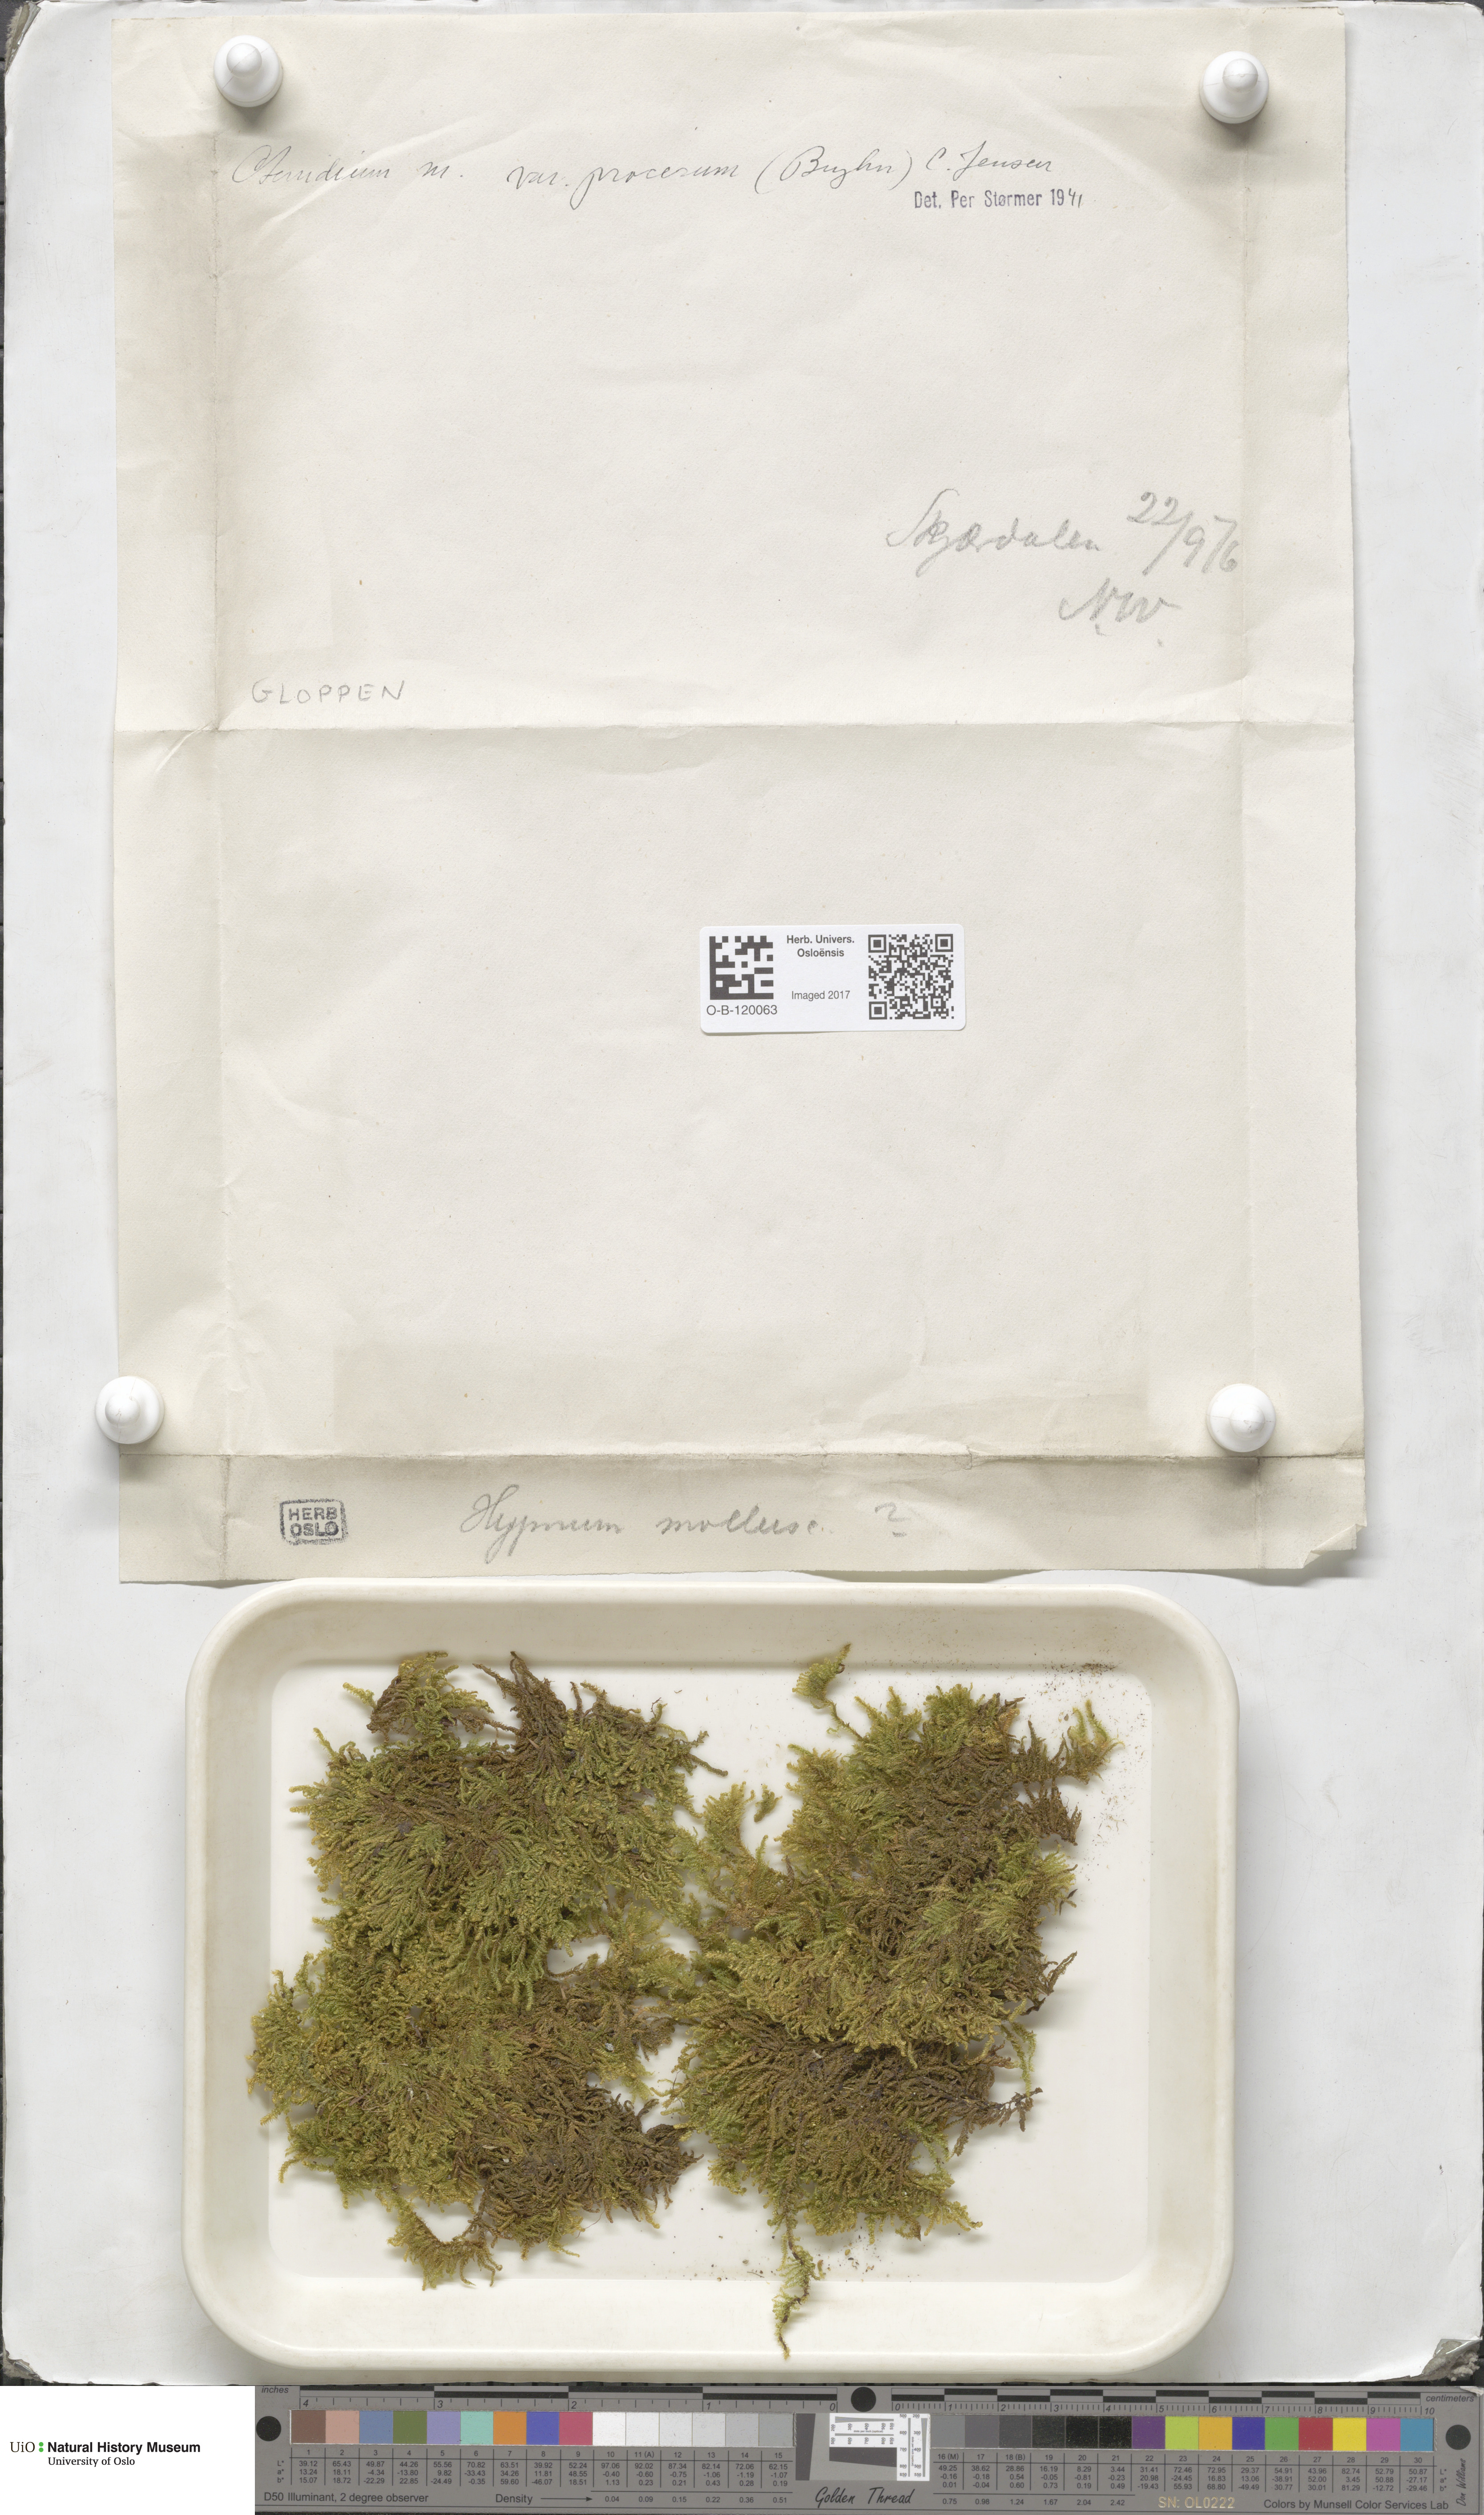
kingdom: Plantae
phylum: Bryophyta
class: Bryopsida
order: Hypnales
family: Myuriaceae
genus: Ctenidium
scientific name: Ctenidium molluscum
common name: Chalk comb-moss
